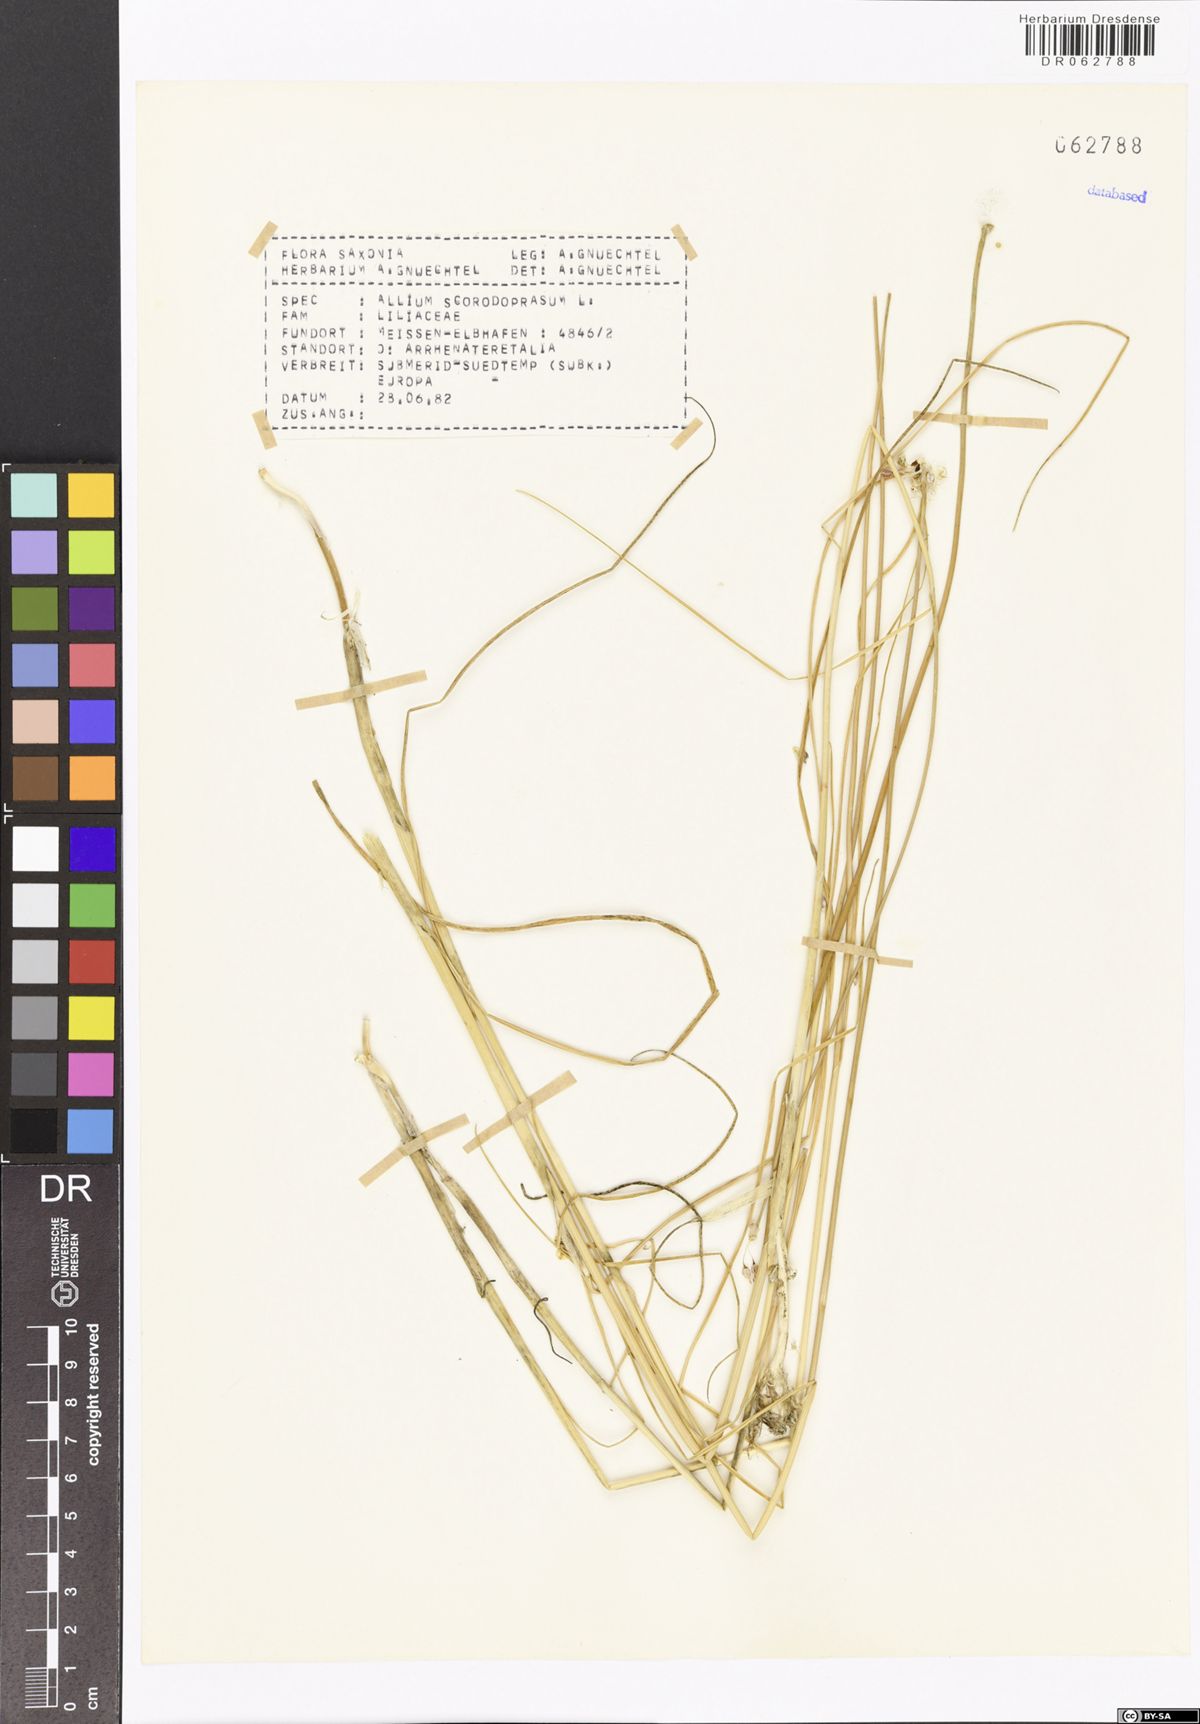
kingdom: Plantae
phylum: Tracheophyta
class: Liliopsida
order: Asparagales
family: Amaryllidaceae
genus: Allium
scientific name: Allium scorodoprasum
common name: Sand leek
